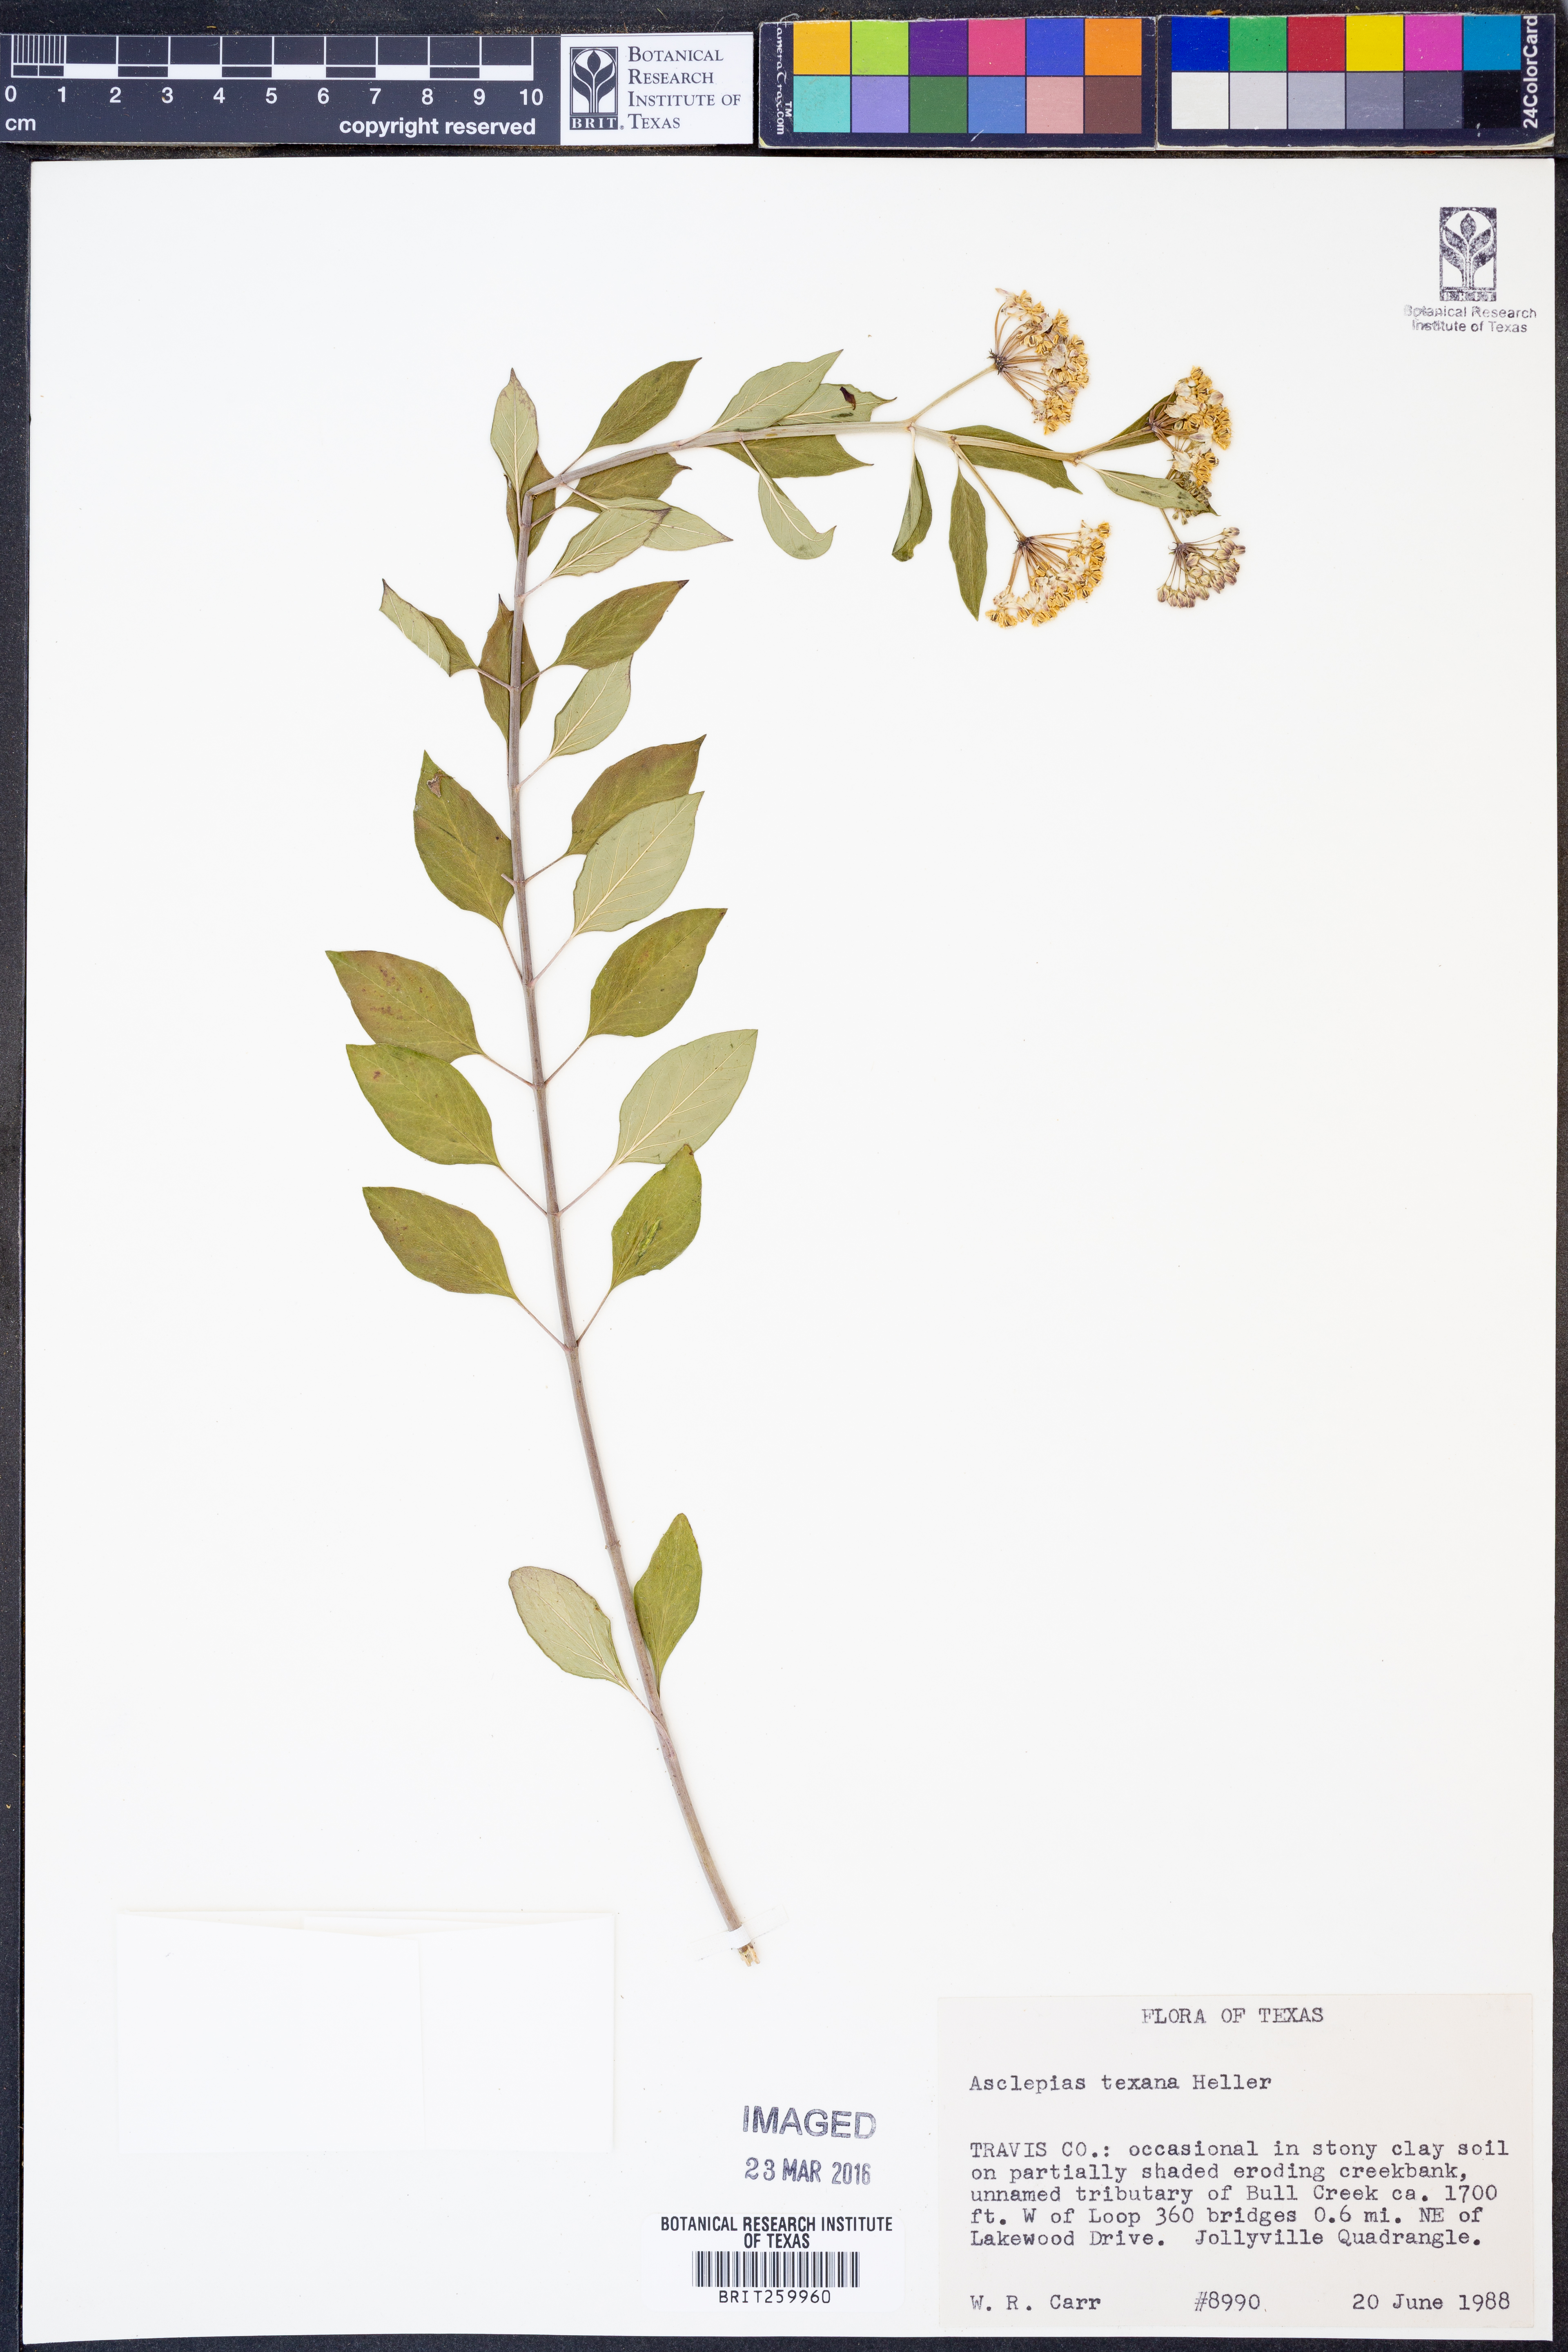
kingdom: Plantae
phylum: Tracheophyta
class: Magnoliopsida
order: Gentianales
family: Apocynaceae
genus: Asclepias
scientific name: Asclepias texana
